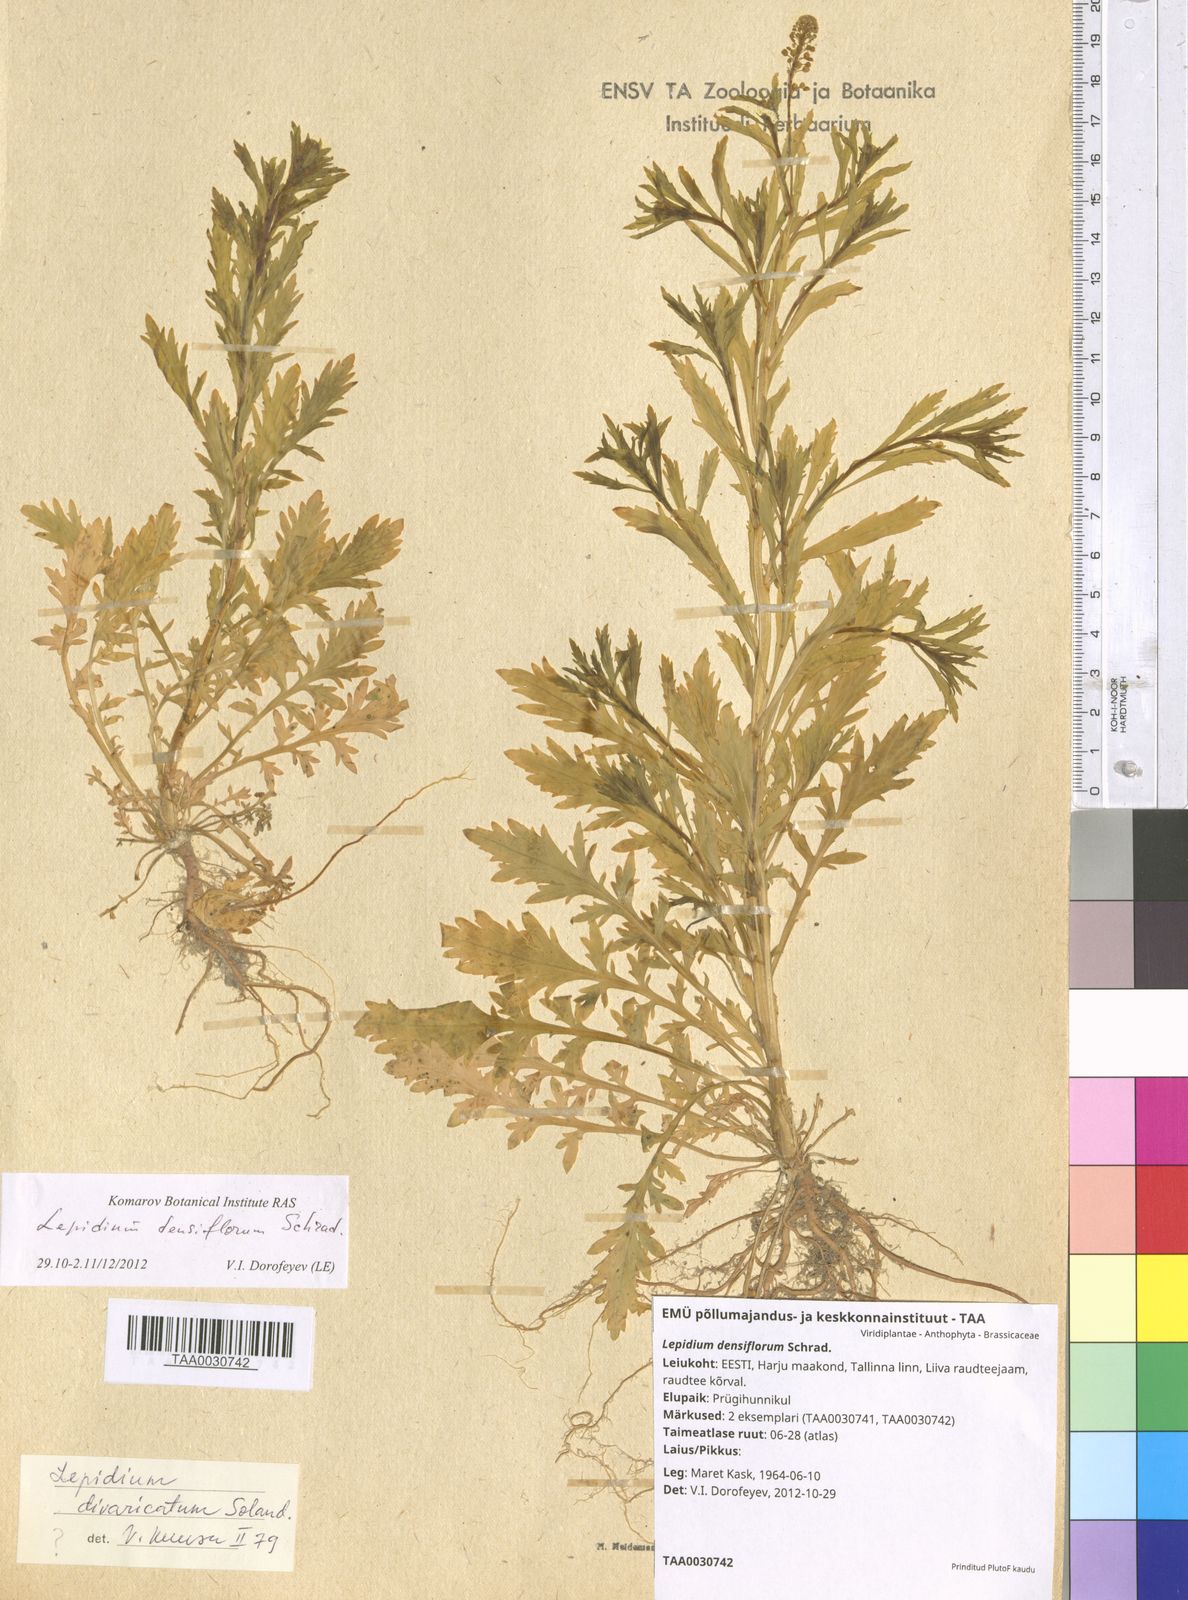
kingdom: Plantae
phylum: Tracheophyta
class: Magnoliopsida
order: Brassicales
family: Brassicaceae
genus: Lepidium
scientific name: Lepidium densiflorum
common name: Miner's pepperwort
